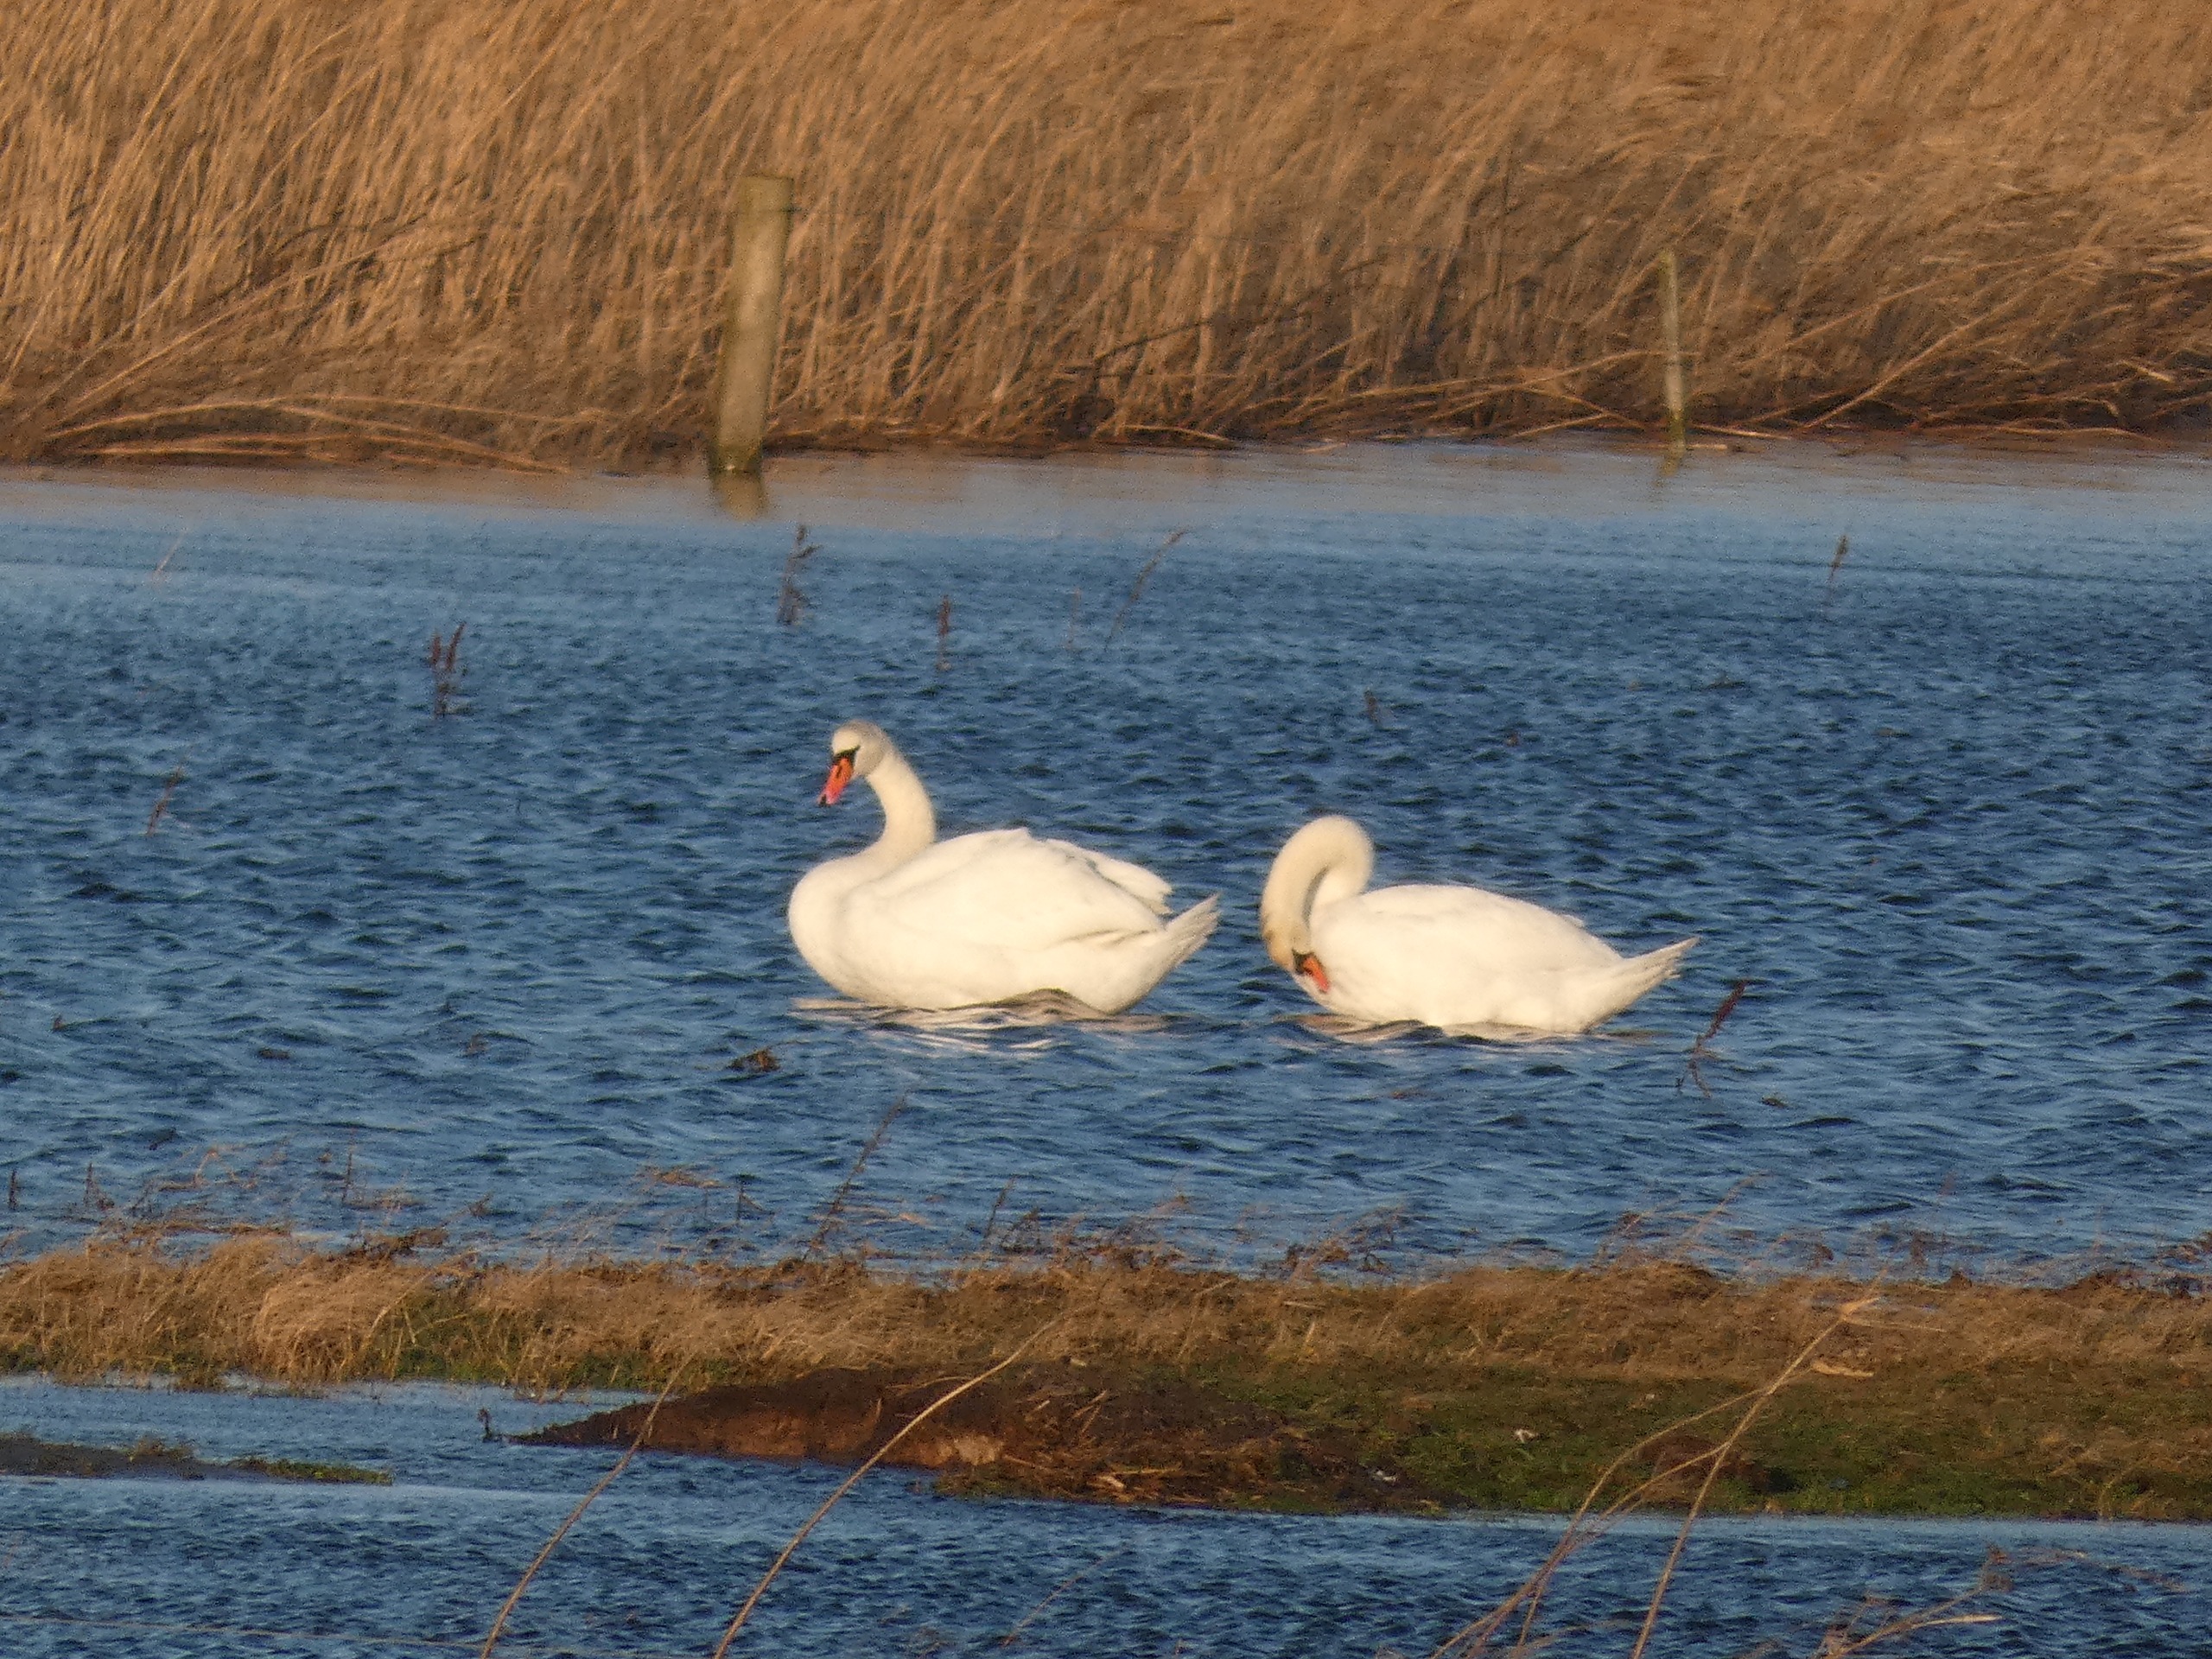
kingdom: Animalia
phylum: Chordata
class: Aves
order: Anseriformes
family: Anatidae
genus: Cygnus
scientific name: Cygnus olor
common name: Knopsvane
